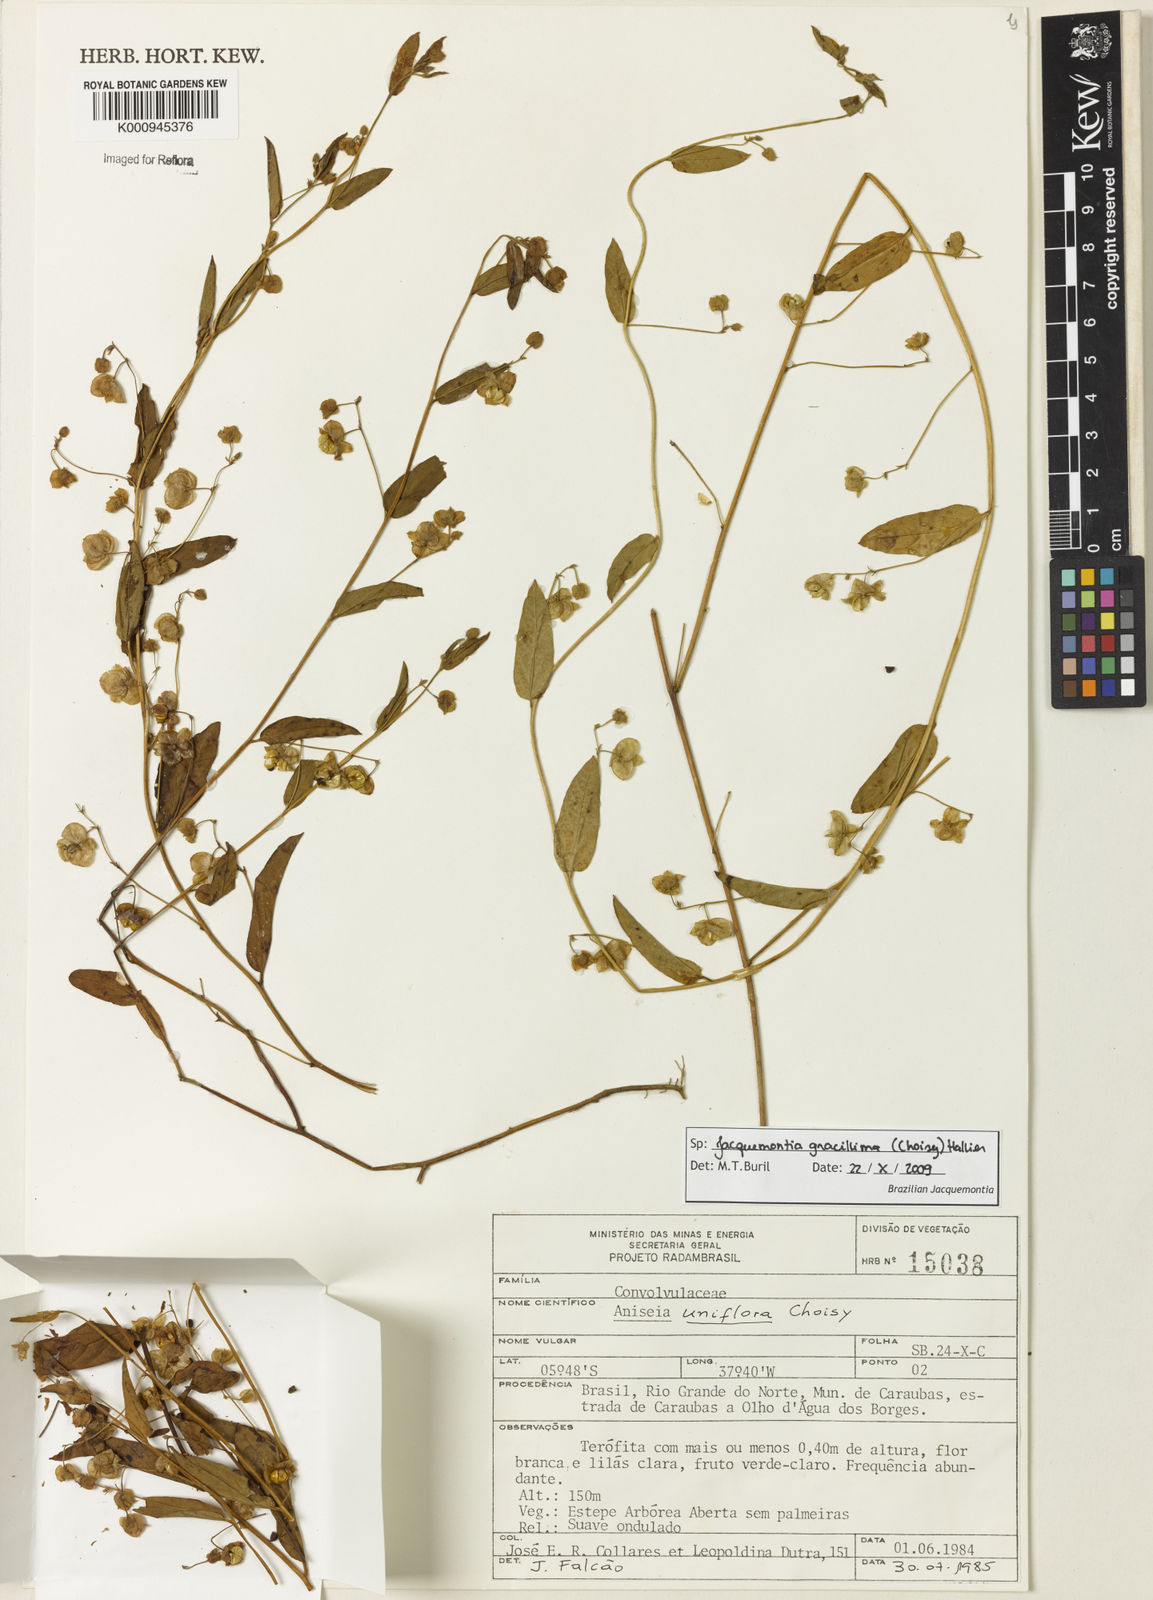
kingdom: Plantae
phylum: Tracheophyta
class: Magnoliopsida
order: Solanales
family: Convolvulaceae
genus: Jacquemontia
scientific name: Jacquemontia gracillima
